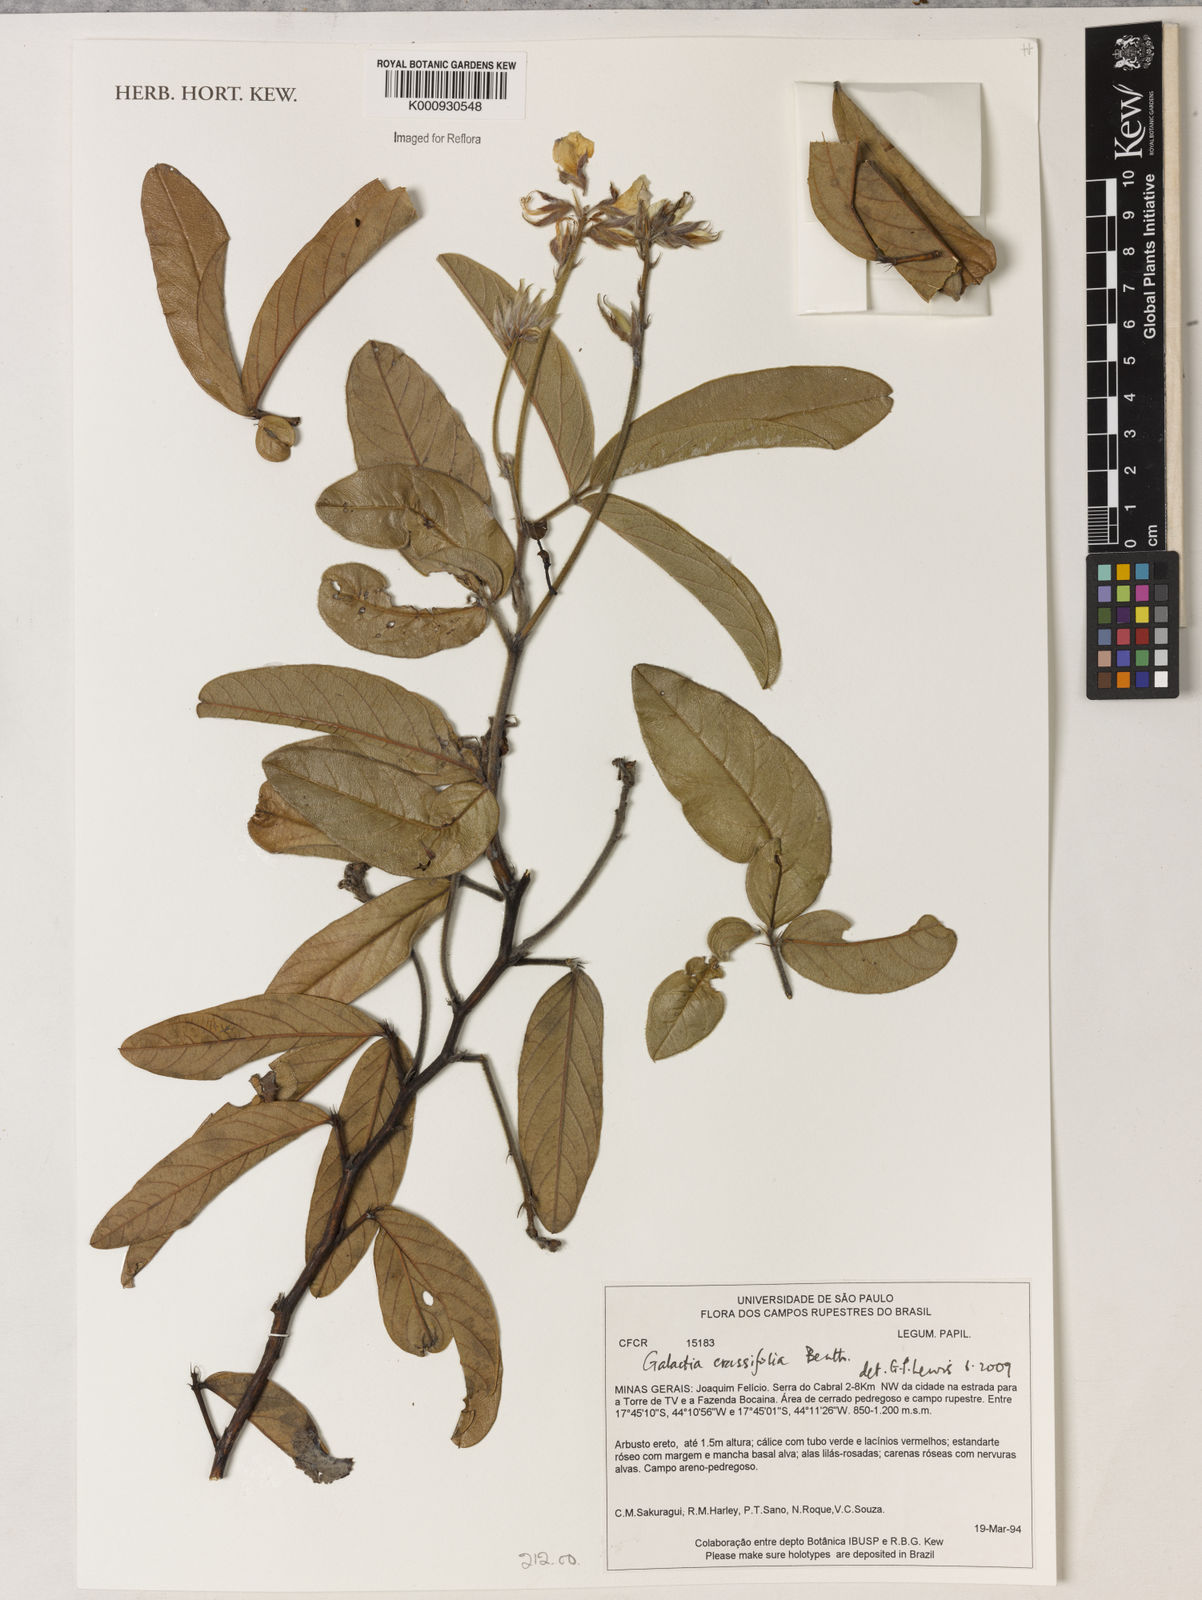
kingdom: Plantae
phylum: Tracheophyta
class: Magnoliopsida
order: Fabales
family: Fabaceae
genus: Betencourtia
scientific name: Betencourtia crassifolia
